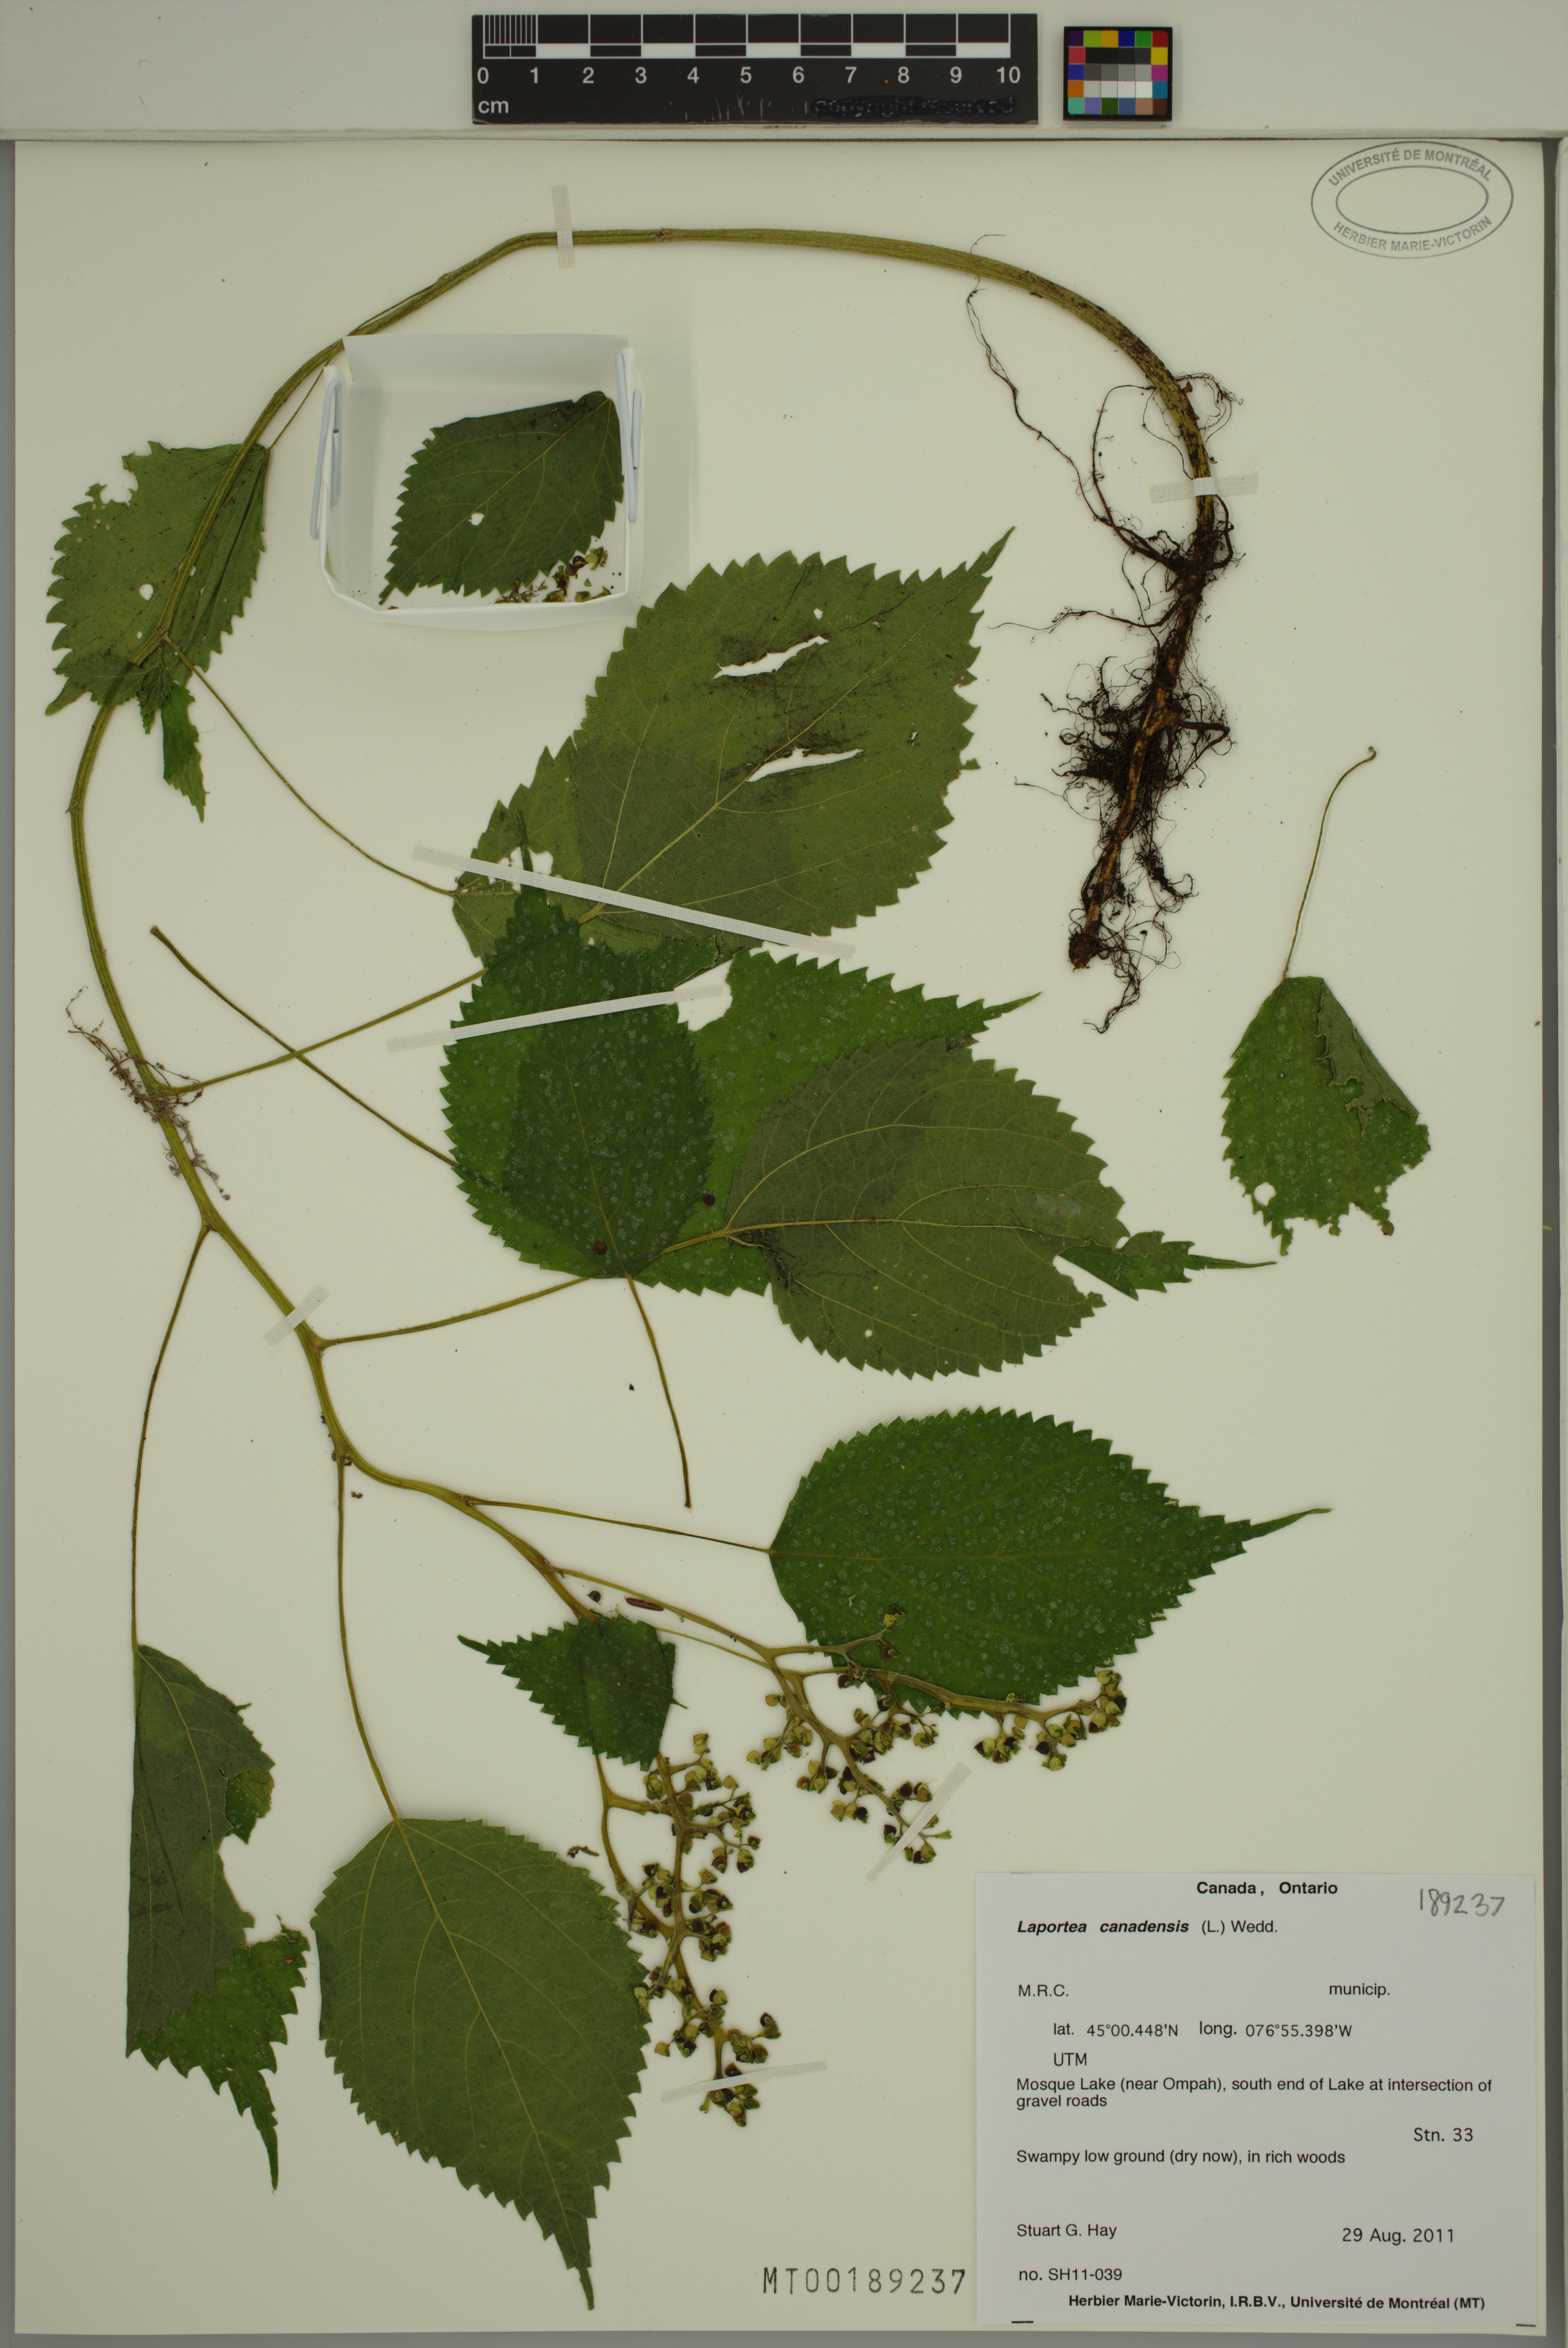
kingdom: Plantae
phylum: Tracheophyta
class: Magnoliopsida
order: Rosales
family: Urticaceae
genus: Laportea
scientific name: Laportea canadensis
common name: Canada nettle
